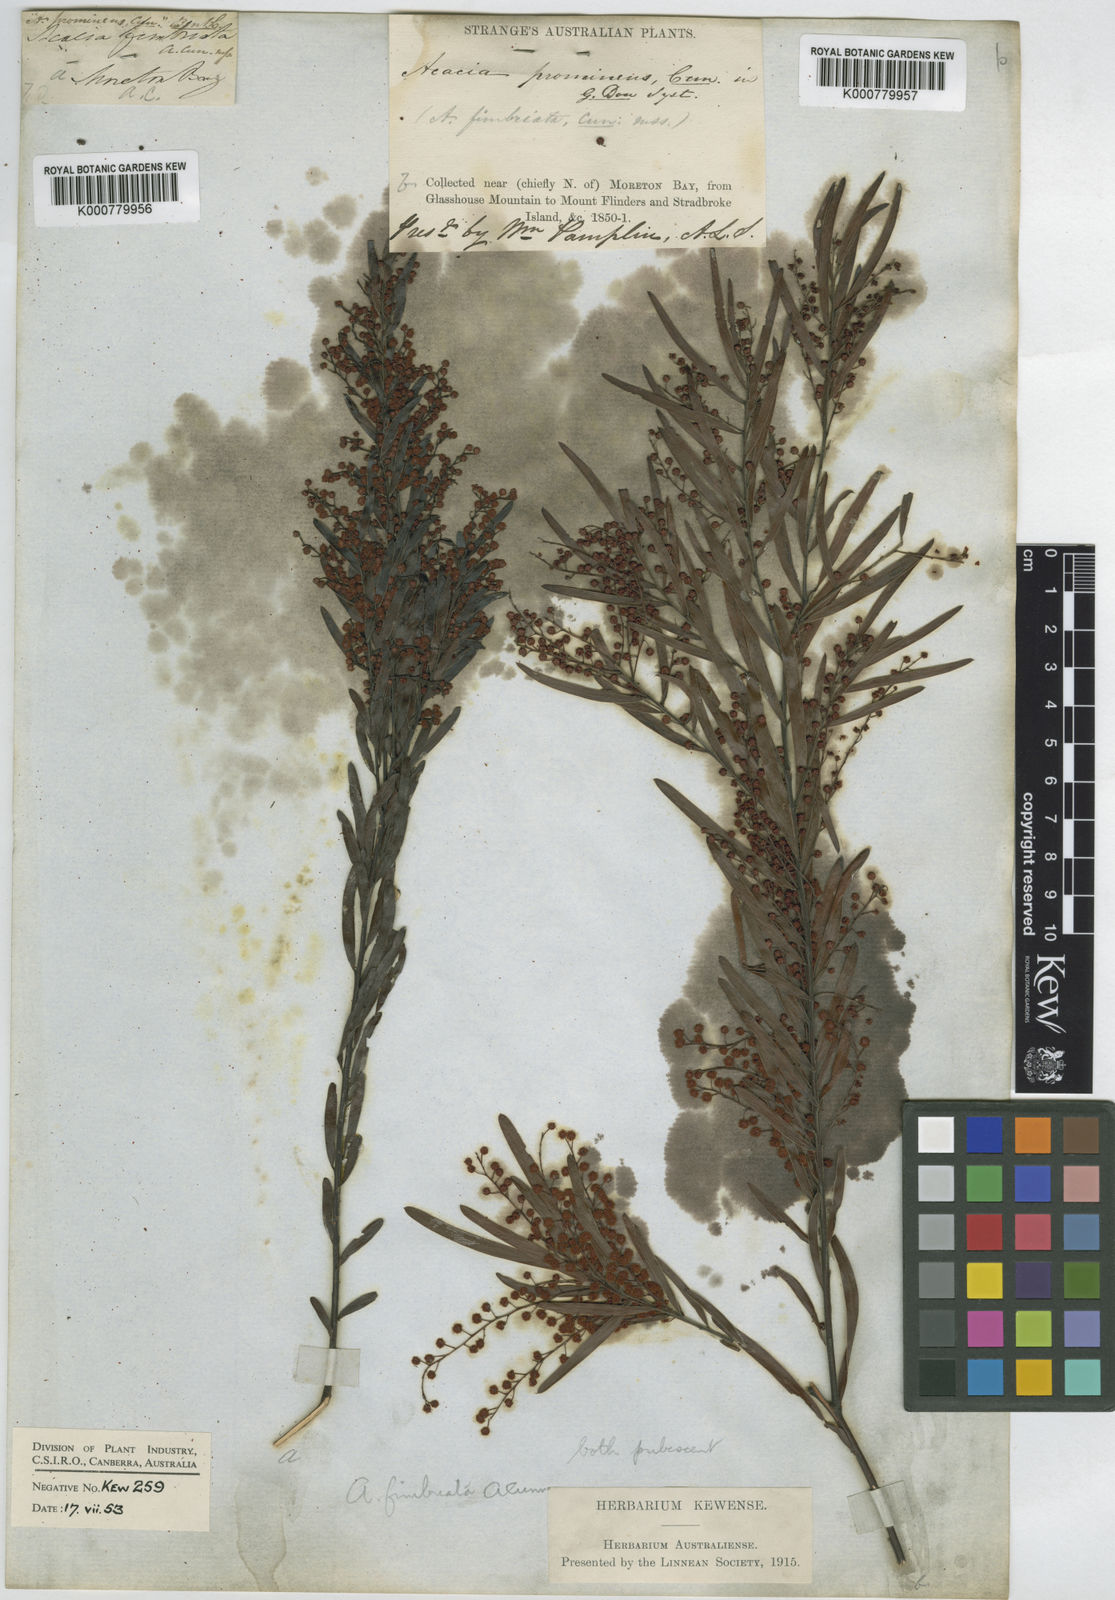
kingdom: Plantae
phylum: Tracheophyta
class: Magnoliopsida
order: Fabales
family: Fabaceae
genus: Acacia
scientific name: Acacia
